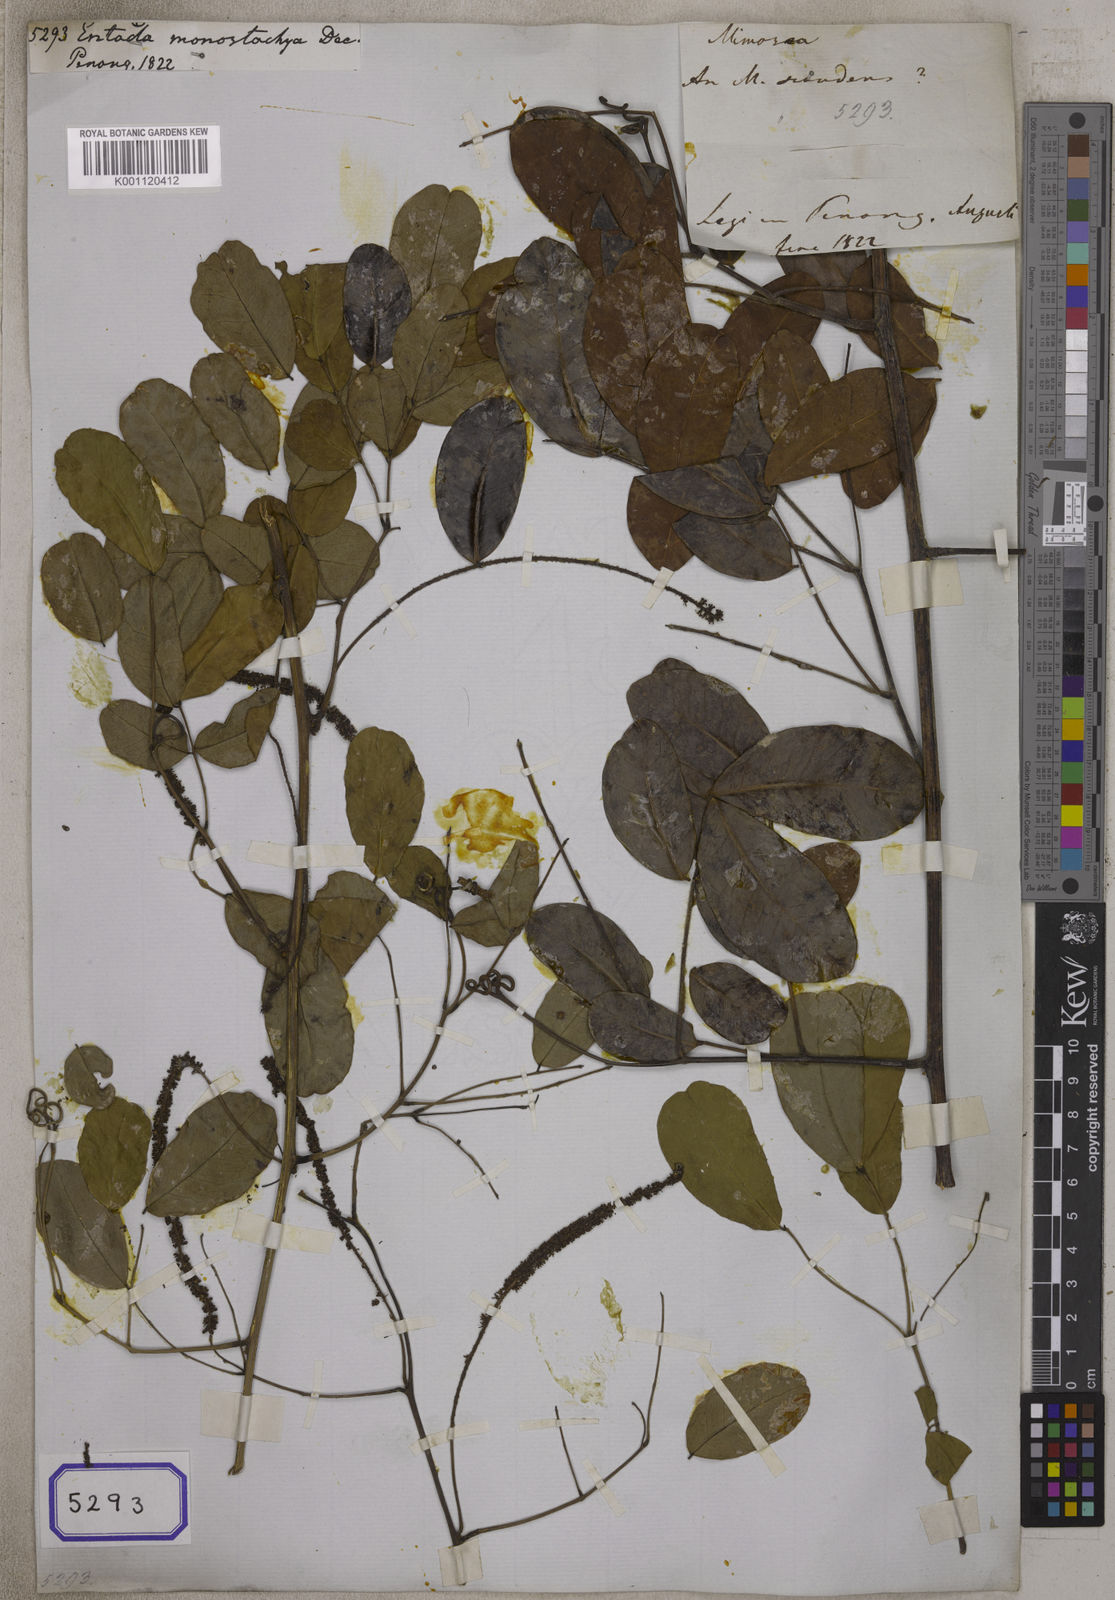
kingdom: Plantae
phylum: Tracheophyta
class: Magnoliopsida
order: Fabales
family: Fabaceae
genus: Entada
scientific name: Entada rheedei
